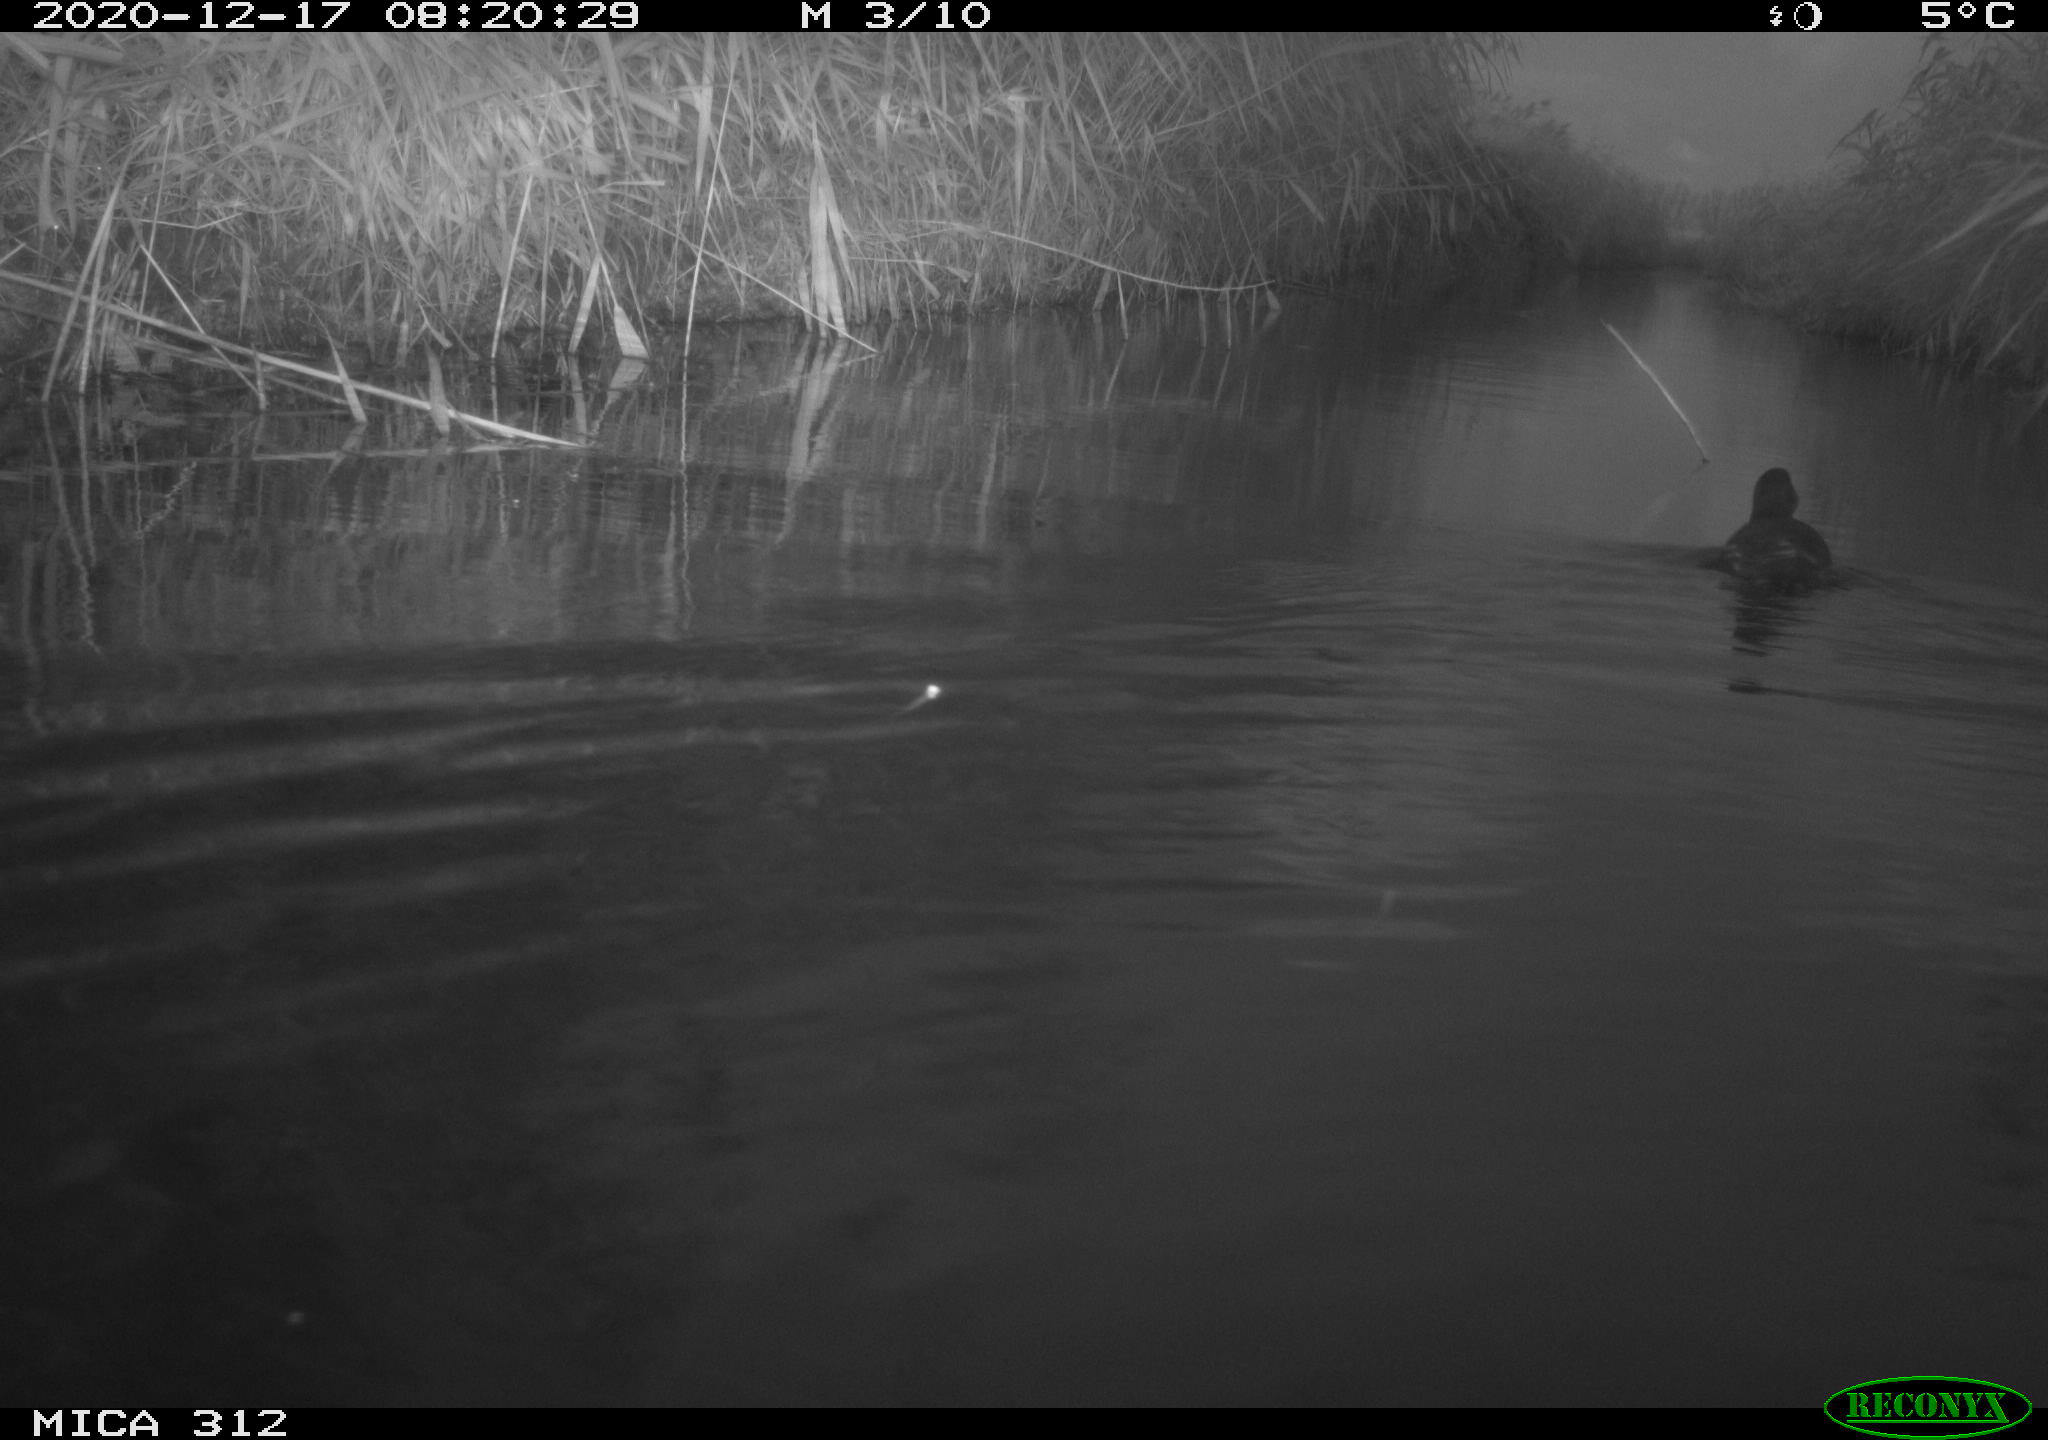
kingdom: Animalia
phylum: Chordata
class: Aves
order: Gruiformes
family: Rallidae
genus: Gallinula
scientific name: Gallinula chloropus
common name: Common moorhen
